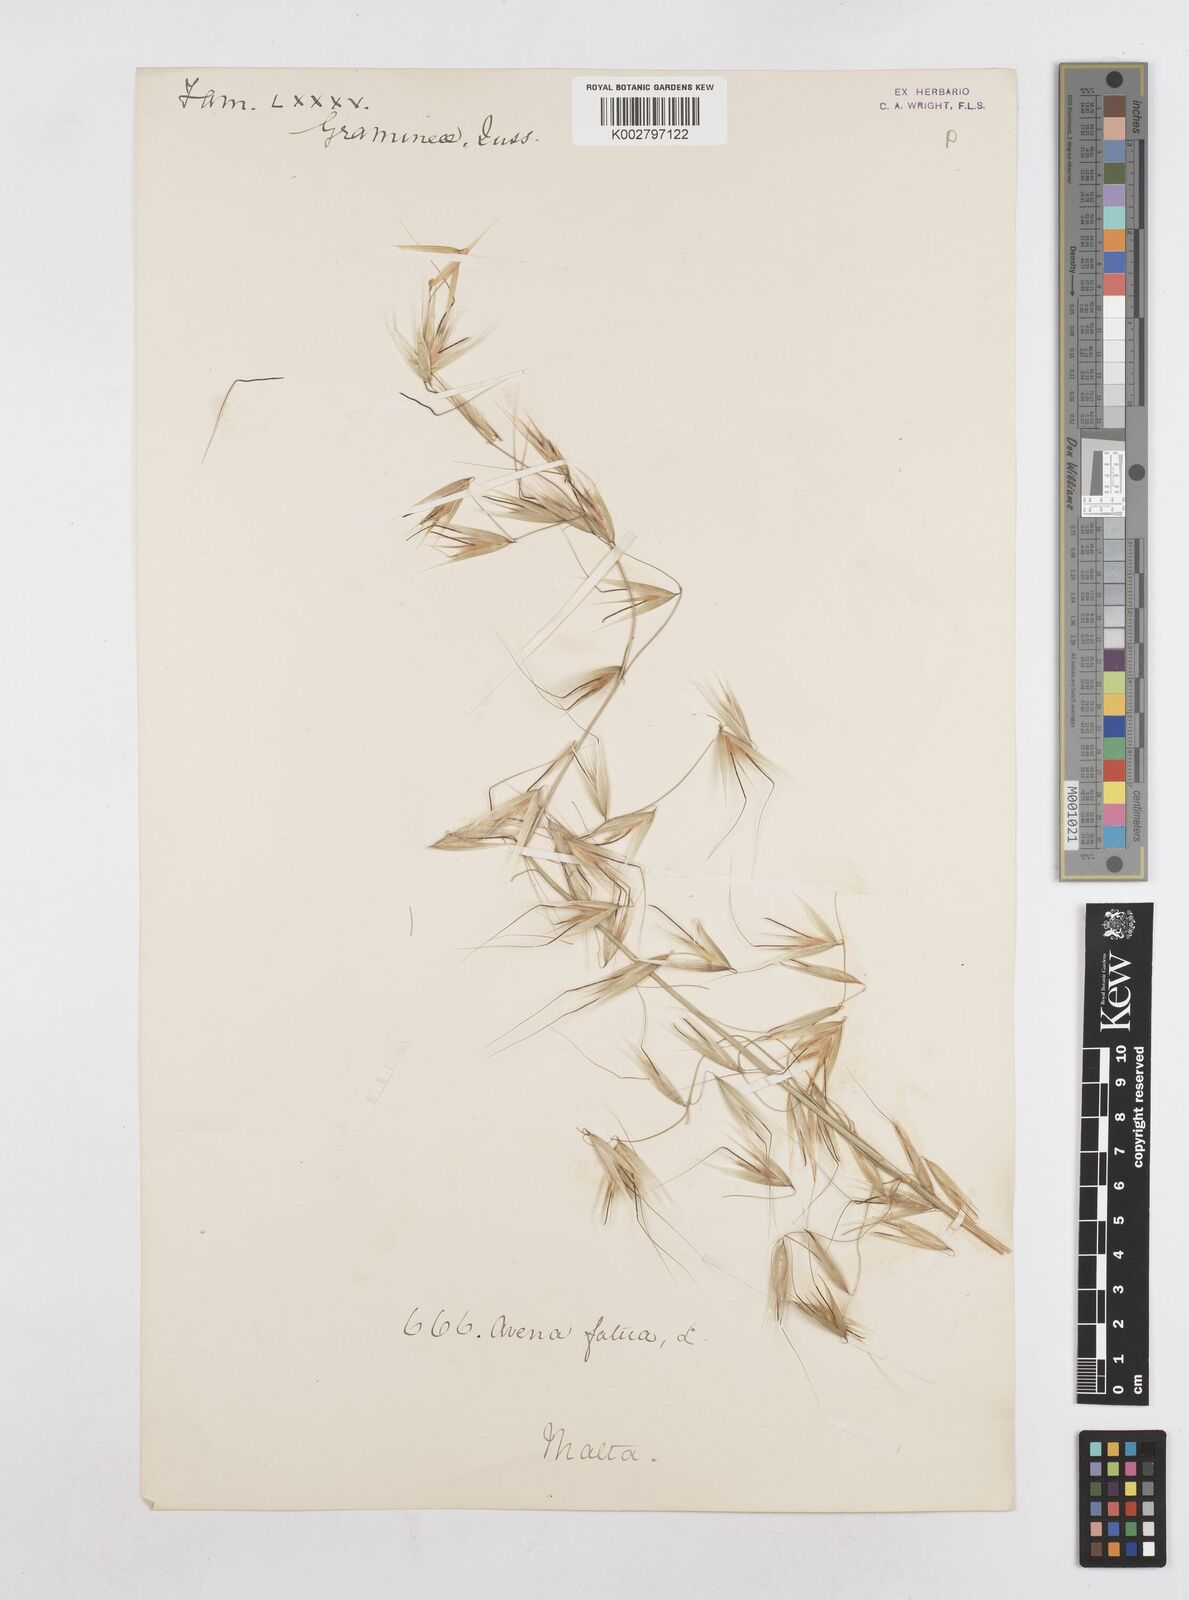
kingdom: Plantae
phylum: Tracheophyta
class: Liliopsida
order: Poales
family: Poaceae
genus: Avena
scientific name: Avena
